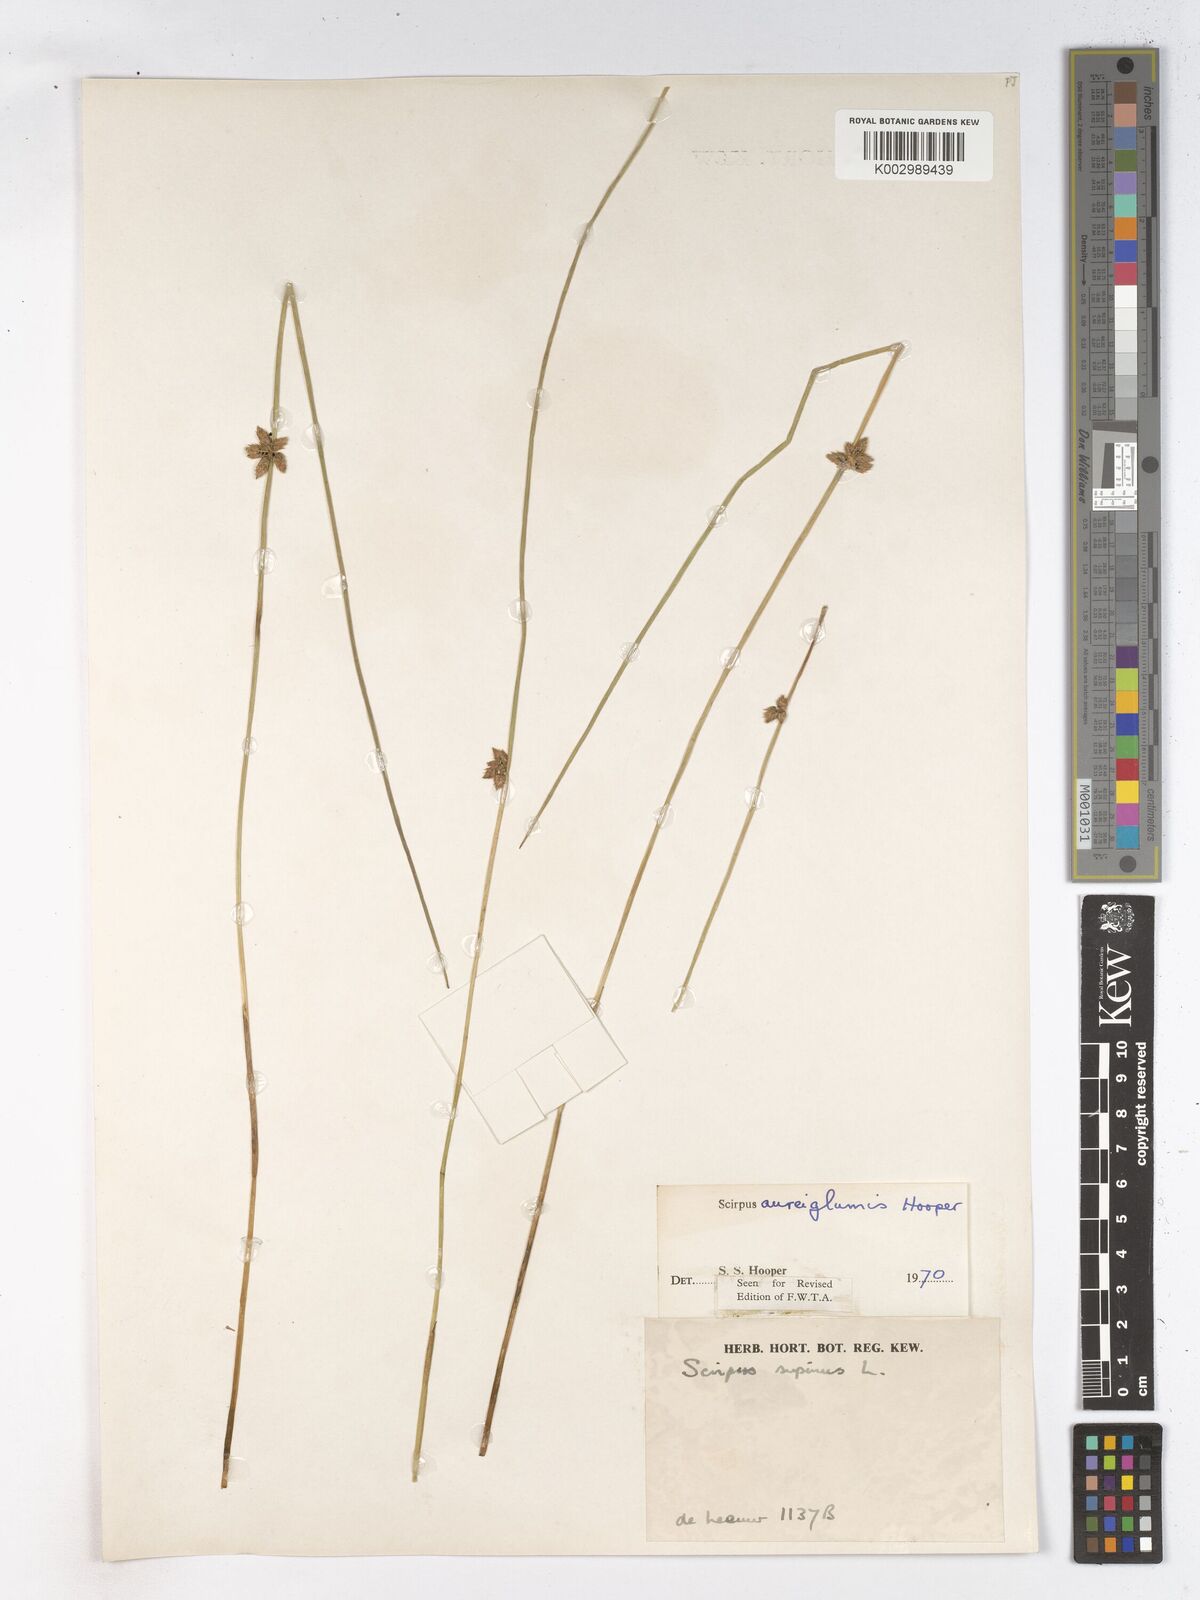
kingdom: Plantae
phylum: Tracheophyta
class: Liliopsida
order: Poales
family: Cyperaceae
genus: Schoenoplectiella
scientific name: Schoenoplectiella juncea
